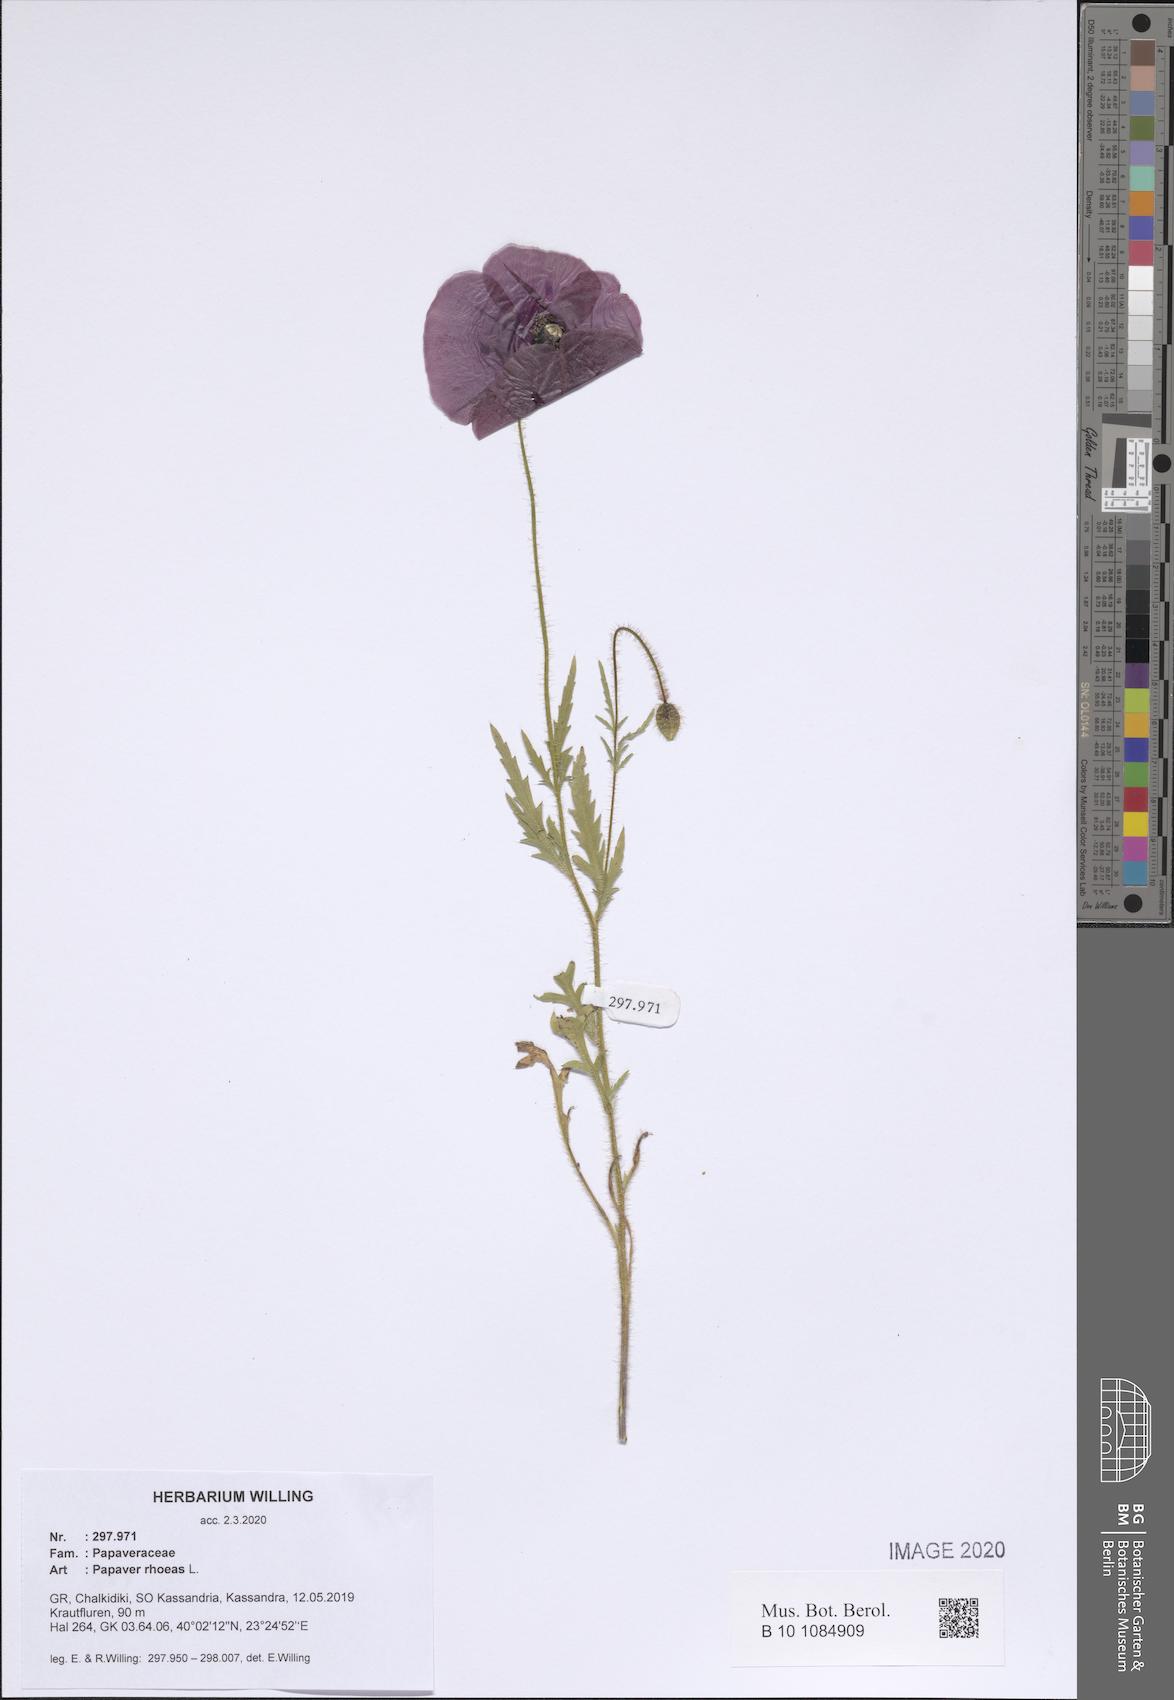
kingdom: Plantae
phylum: Tracheophyta
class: Magnoliopsida
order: Ranunculales
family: Papaveraceae
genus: Papaver
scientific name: Papaver rhoeas
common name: Corn poppy
